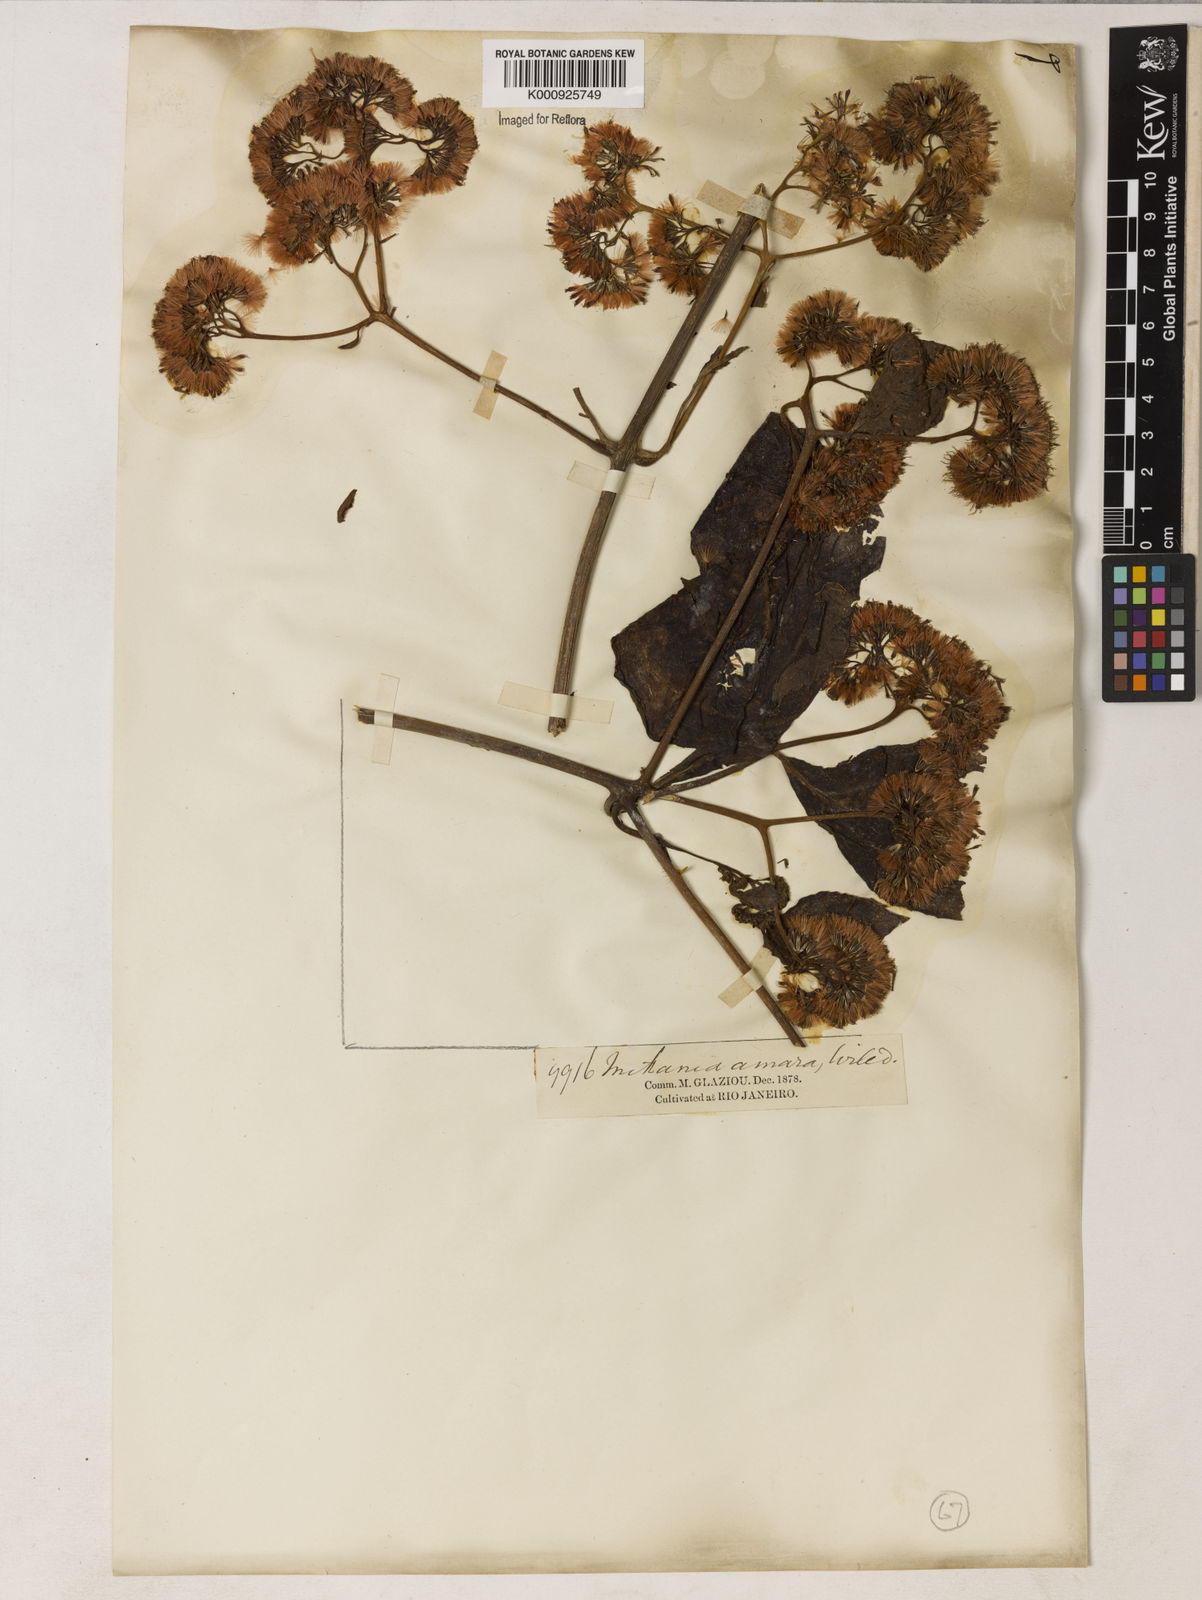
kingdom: Plantae
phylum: Tracheophyta
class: Magnoliopsida
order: Asterales
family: Asteraceae
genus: Mikania
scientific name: Mikania guaco
